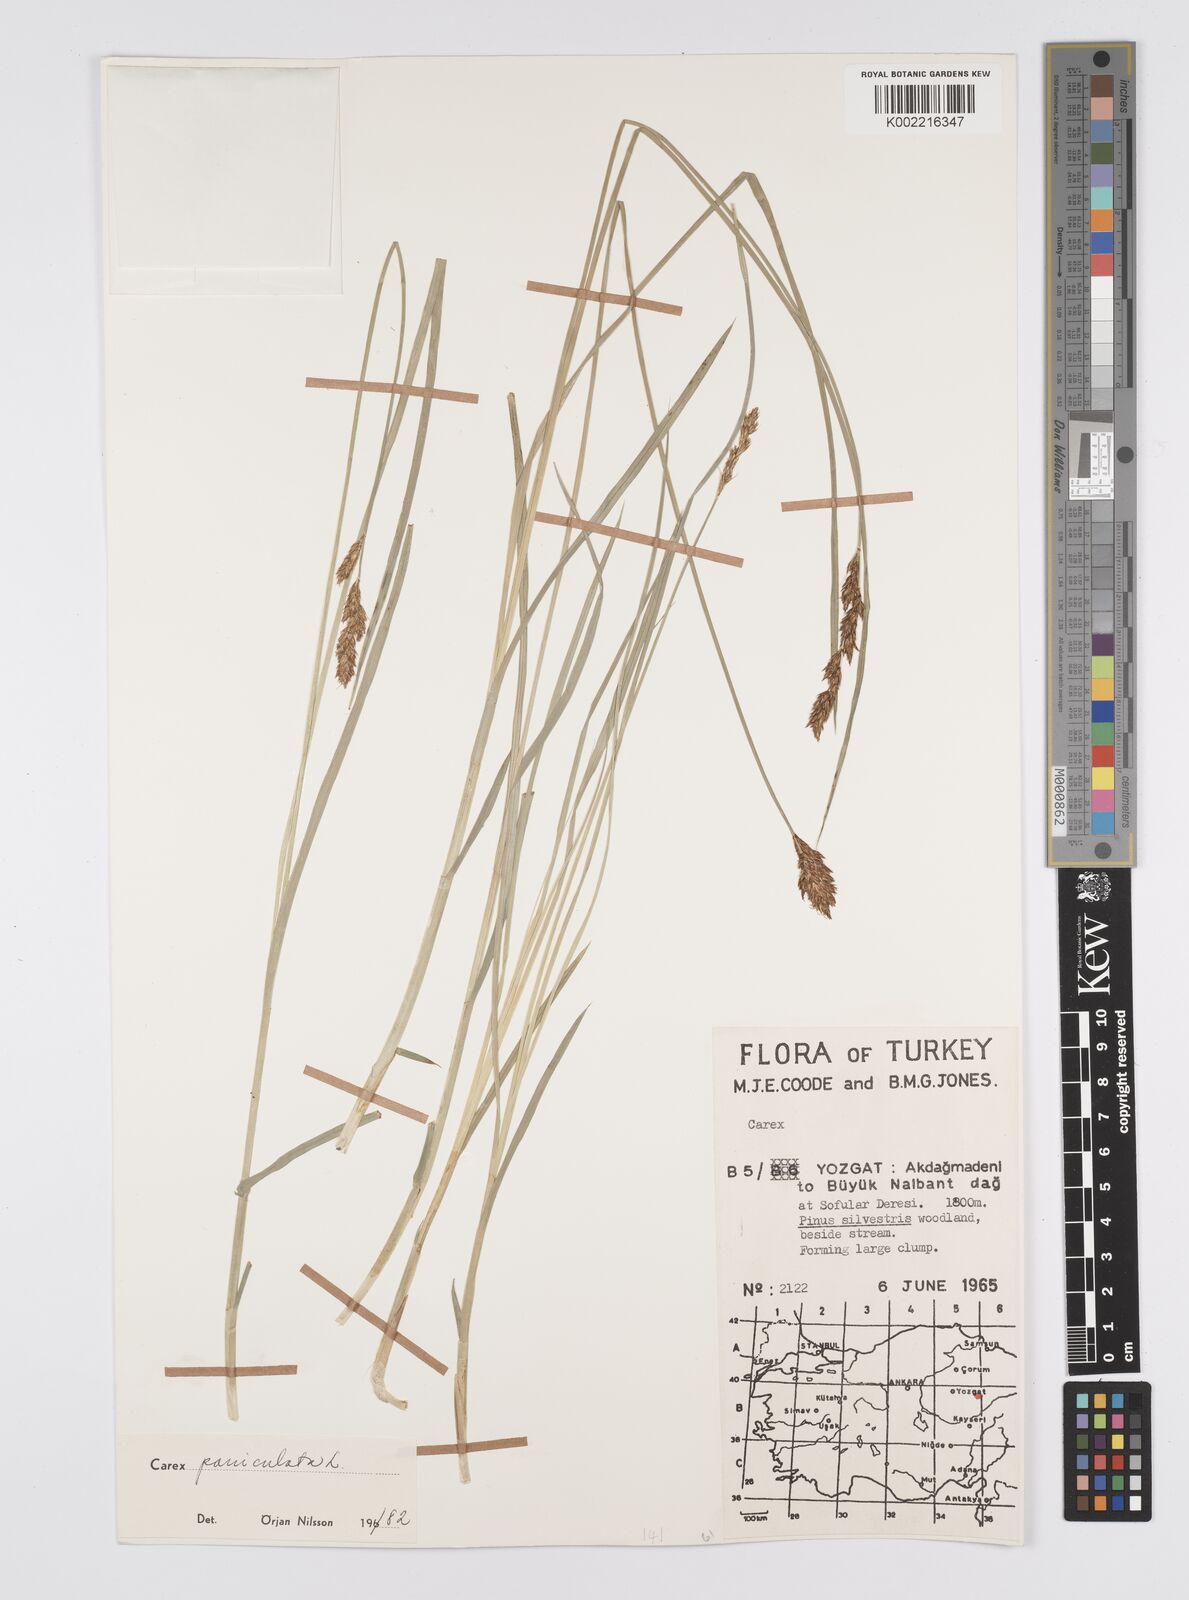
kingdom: Plantae
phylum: Tracheophyta
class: Liliopsida
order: Poales
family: Cyperaceae
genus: Carex
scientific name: Carex paniculata
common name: Greater tussock-sedge
